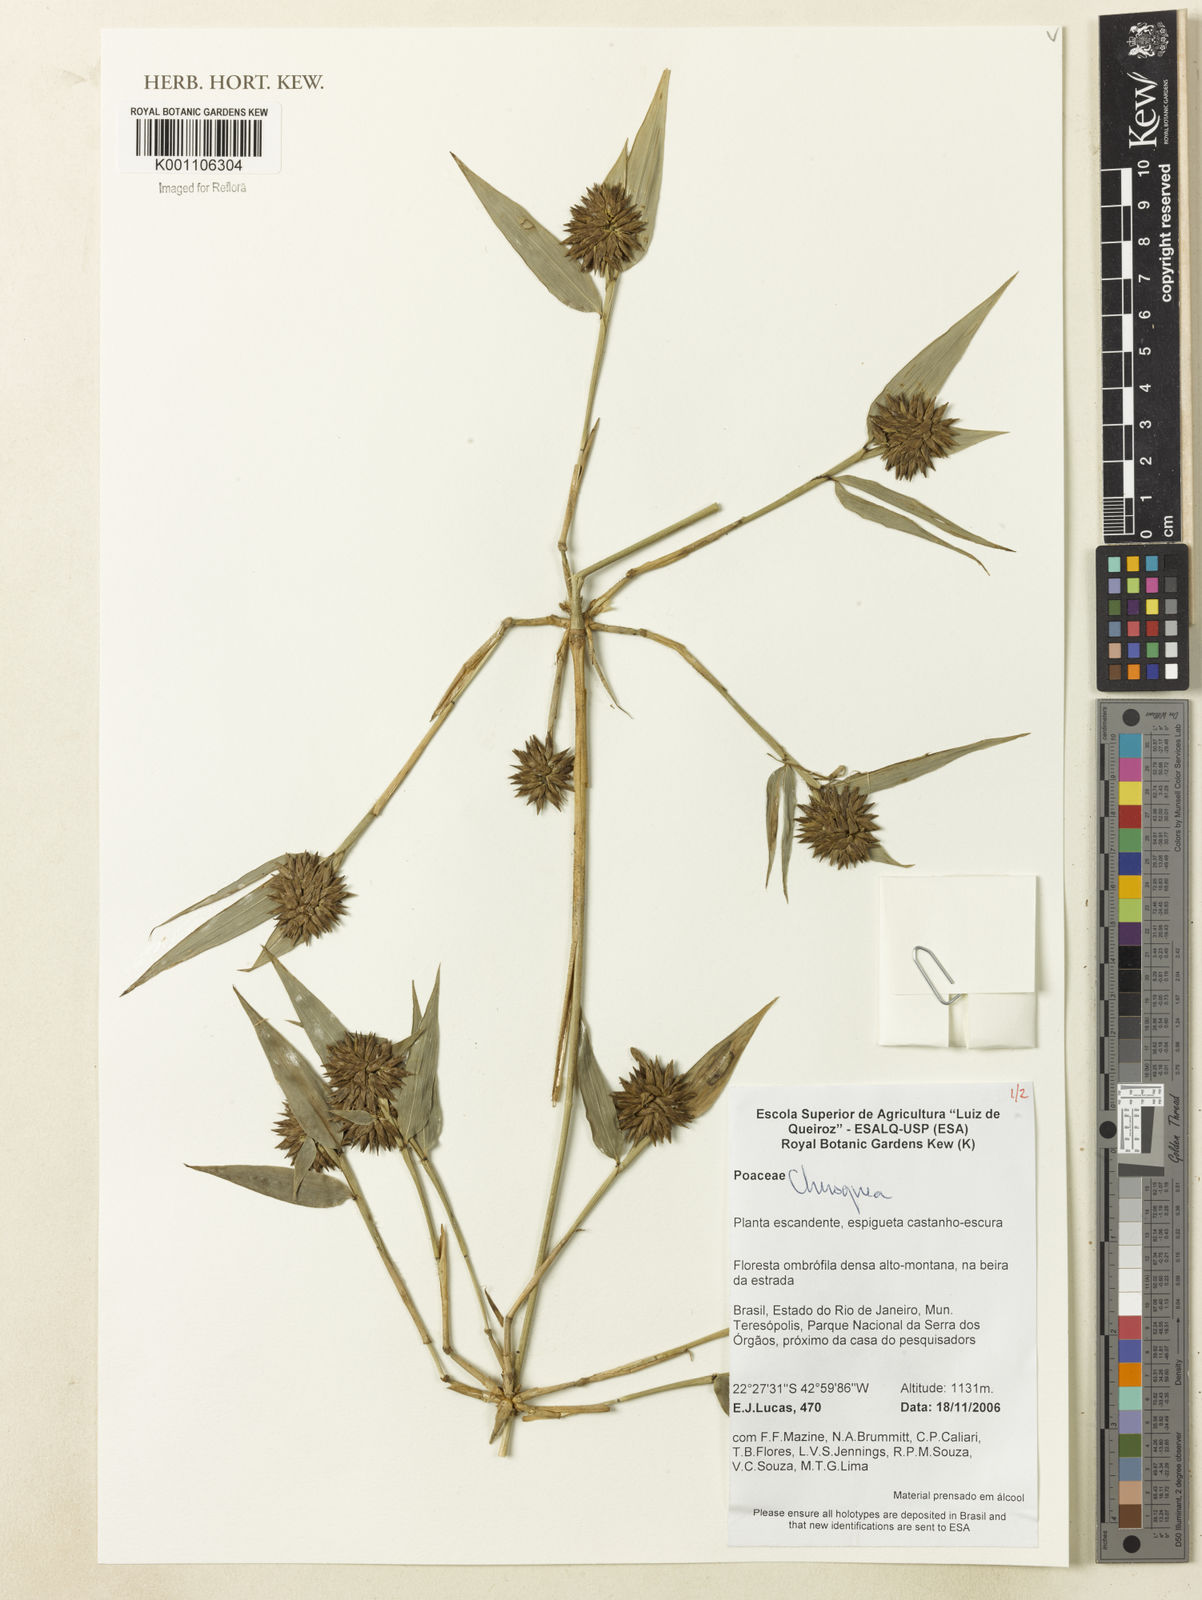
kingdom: Plantae
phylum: Tracheophyta
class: Liliopsida
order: Poales
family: Poaceae
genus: Chusquea
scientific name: Chusquea
